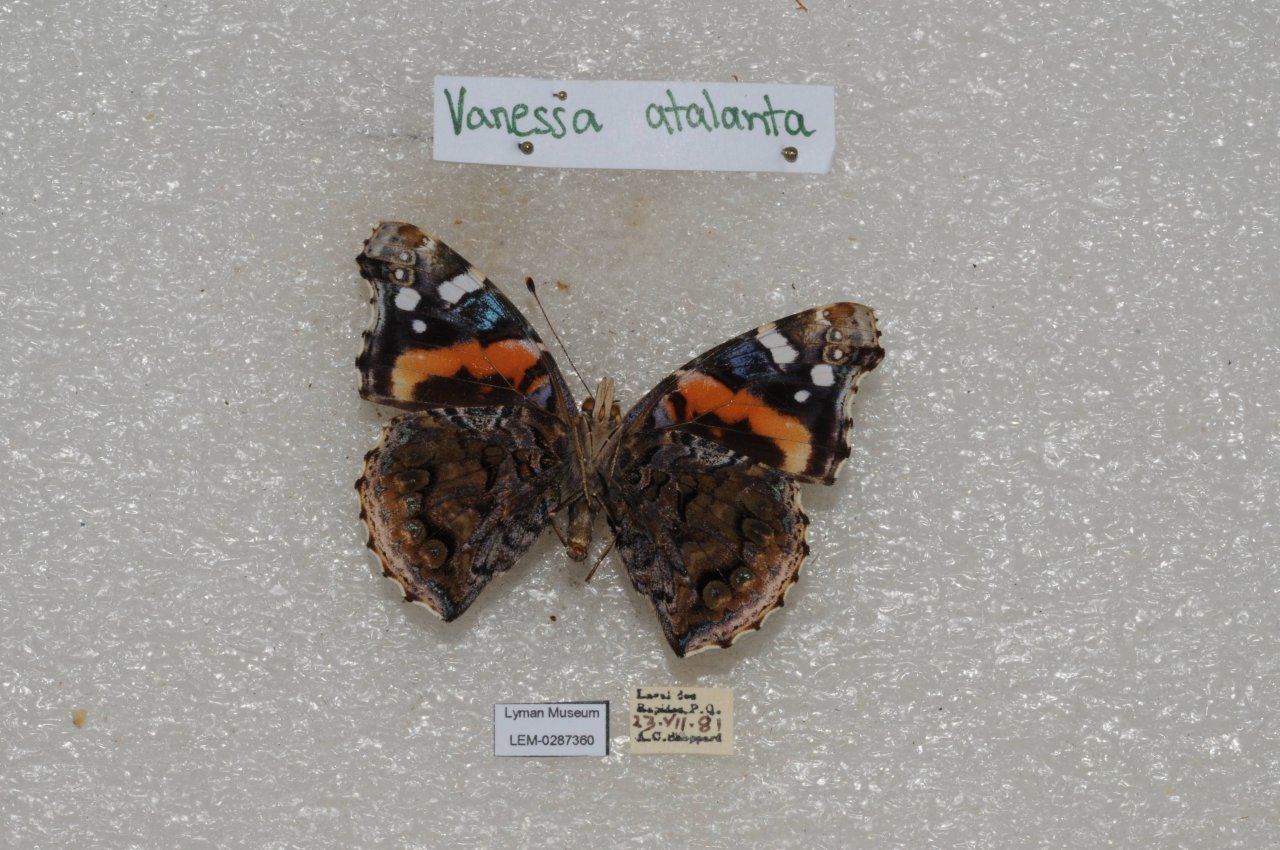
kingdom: Animalia
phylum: Arthropoda
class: Insecta
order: Lepidoptera
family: Nymphalidae
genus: Vanessa
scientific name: Vanessa atalanta
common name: Red Admiral
